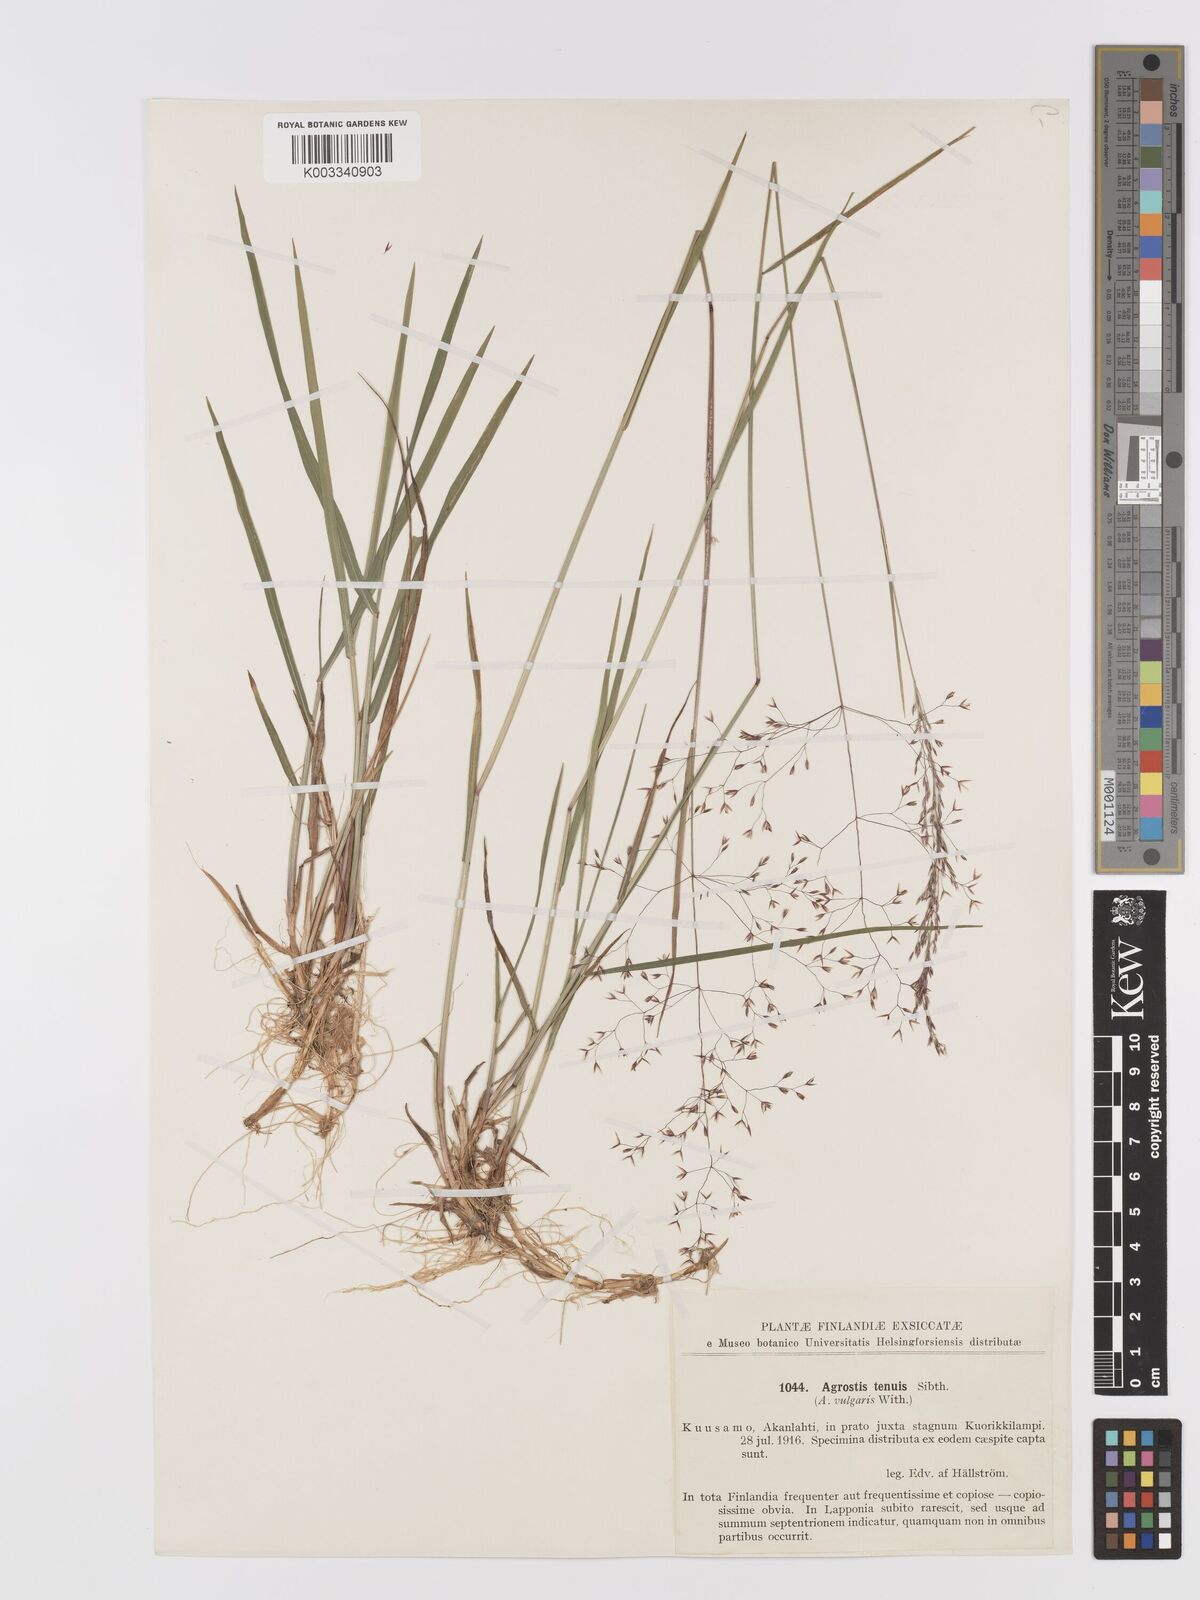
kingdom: Plantae
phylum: Tracheophyta
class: Liliopsida
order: Poales
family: Poaceae
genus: Agrostis
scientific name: Agrostis capillaris
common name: Colonial bentgrass
